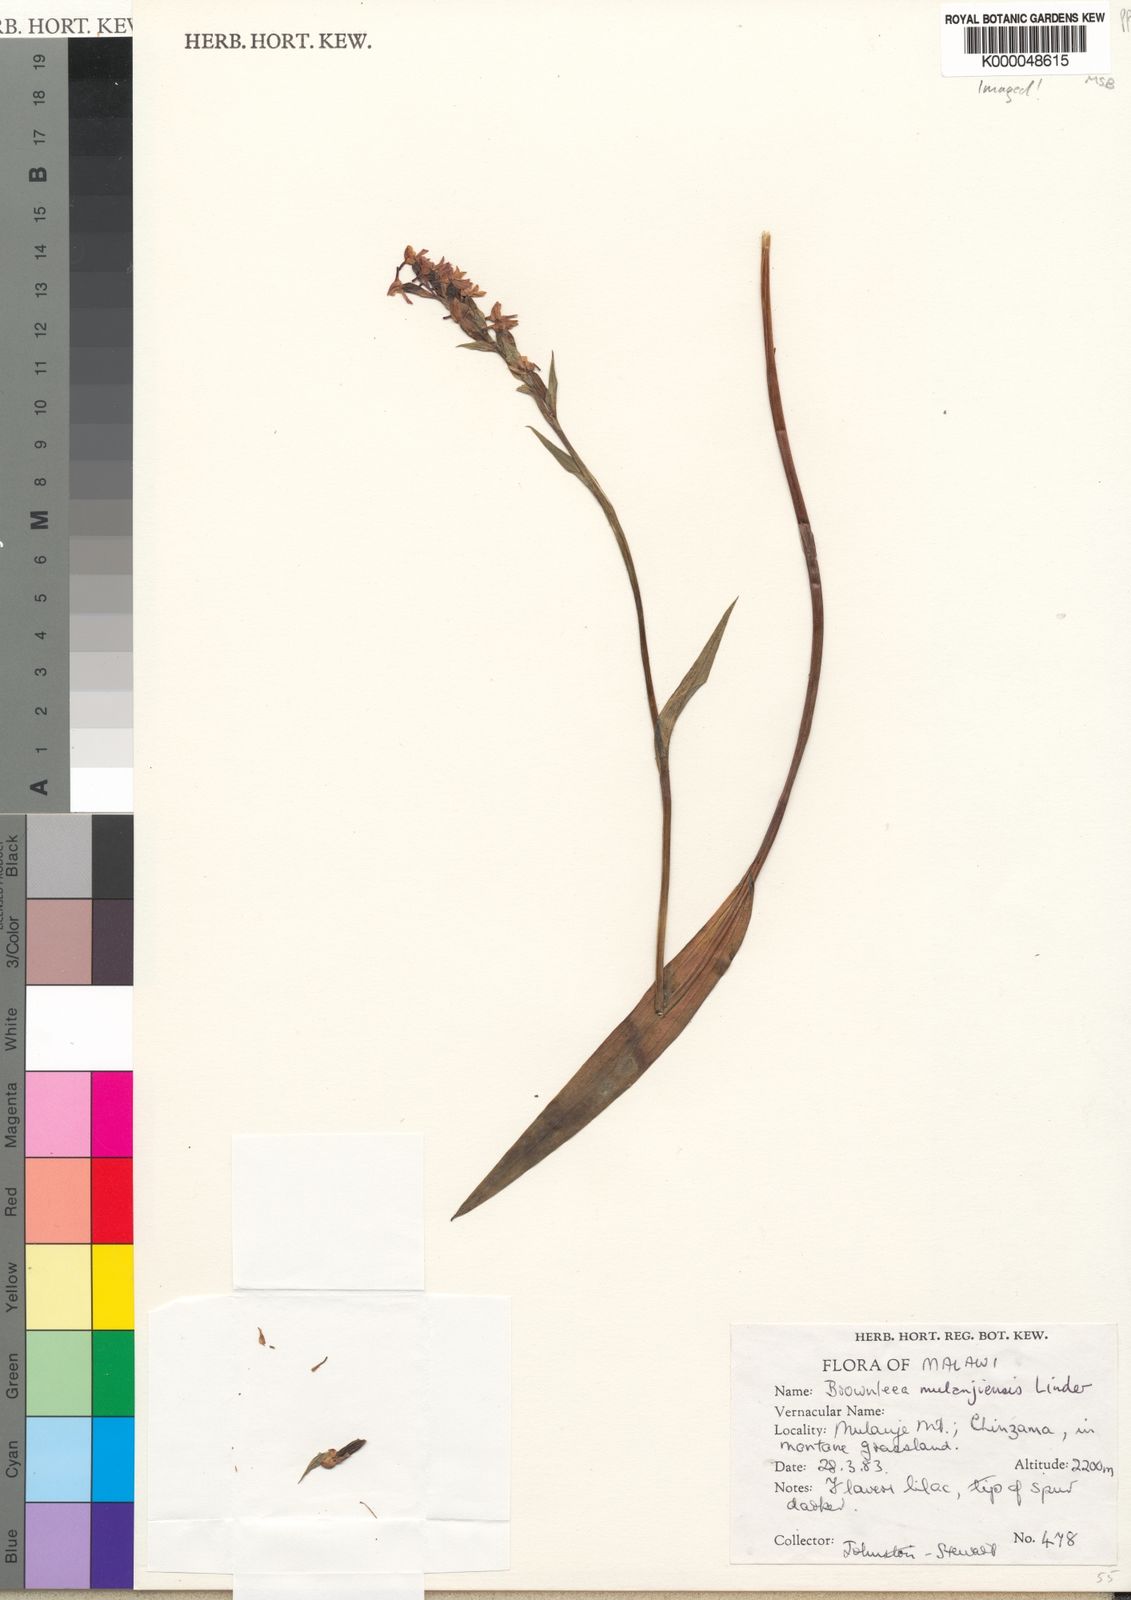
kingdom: Plantae
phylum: Tracheophyta
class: Liliopsida
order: Asparagales
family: Orchidaceae
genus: Brownleea
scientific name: Brownleea mulanjiensis
